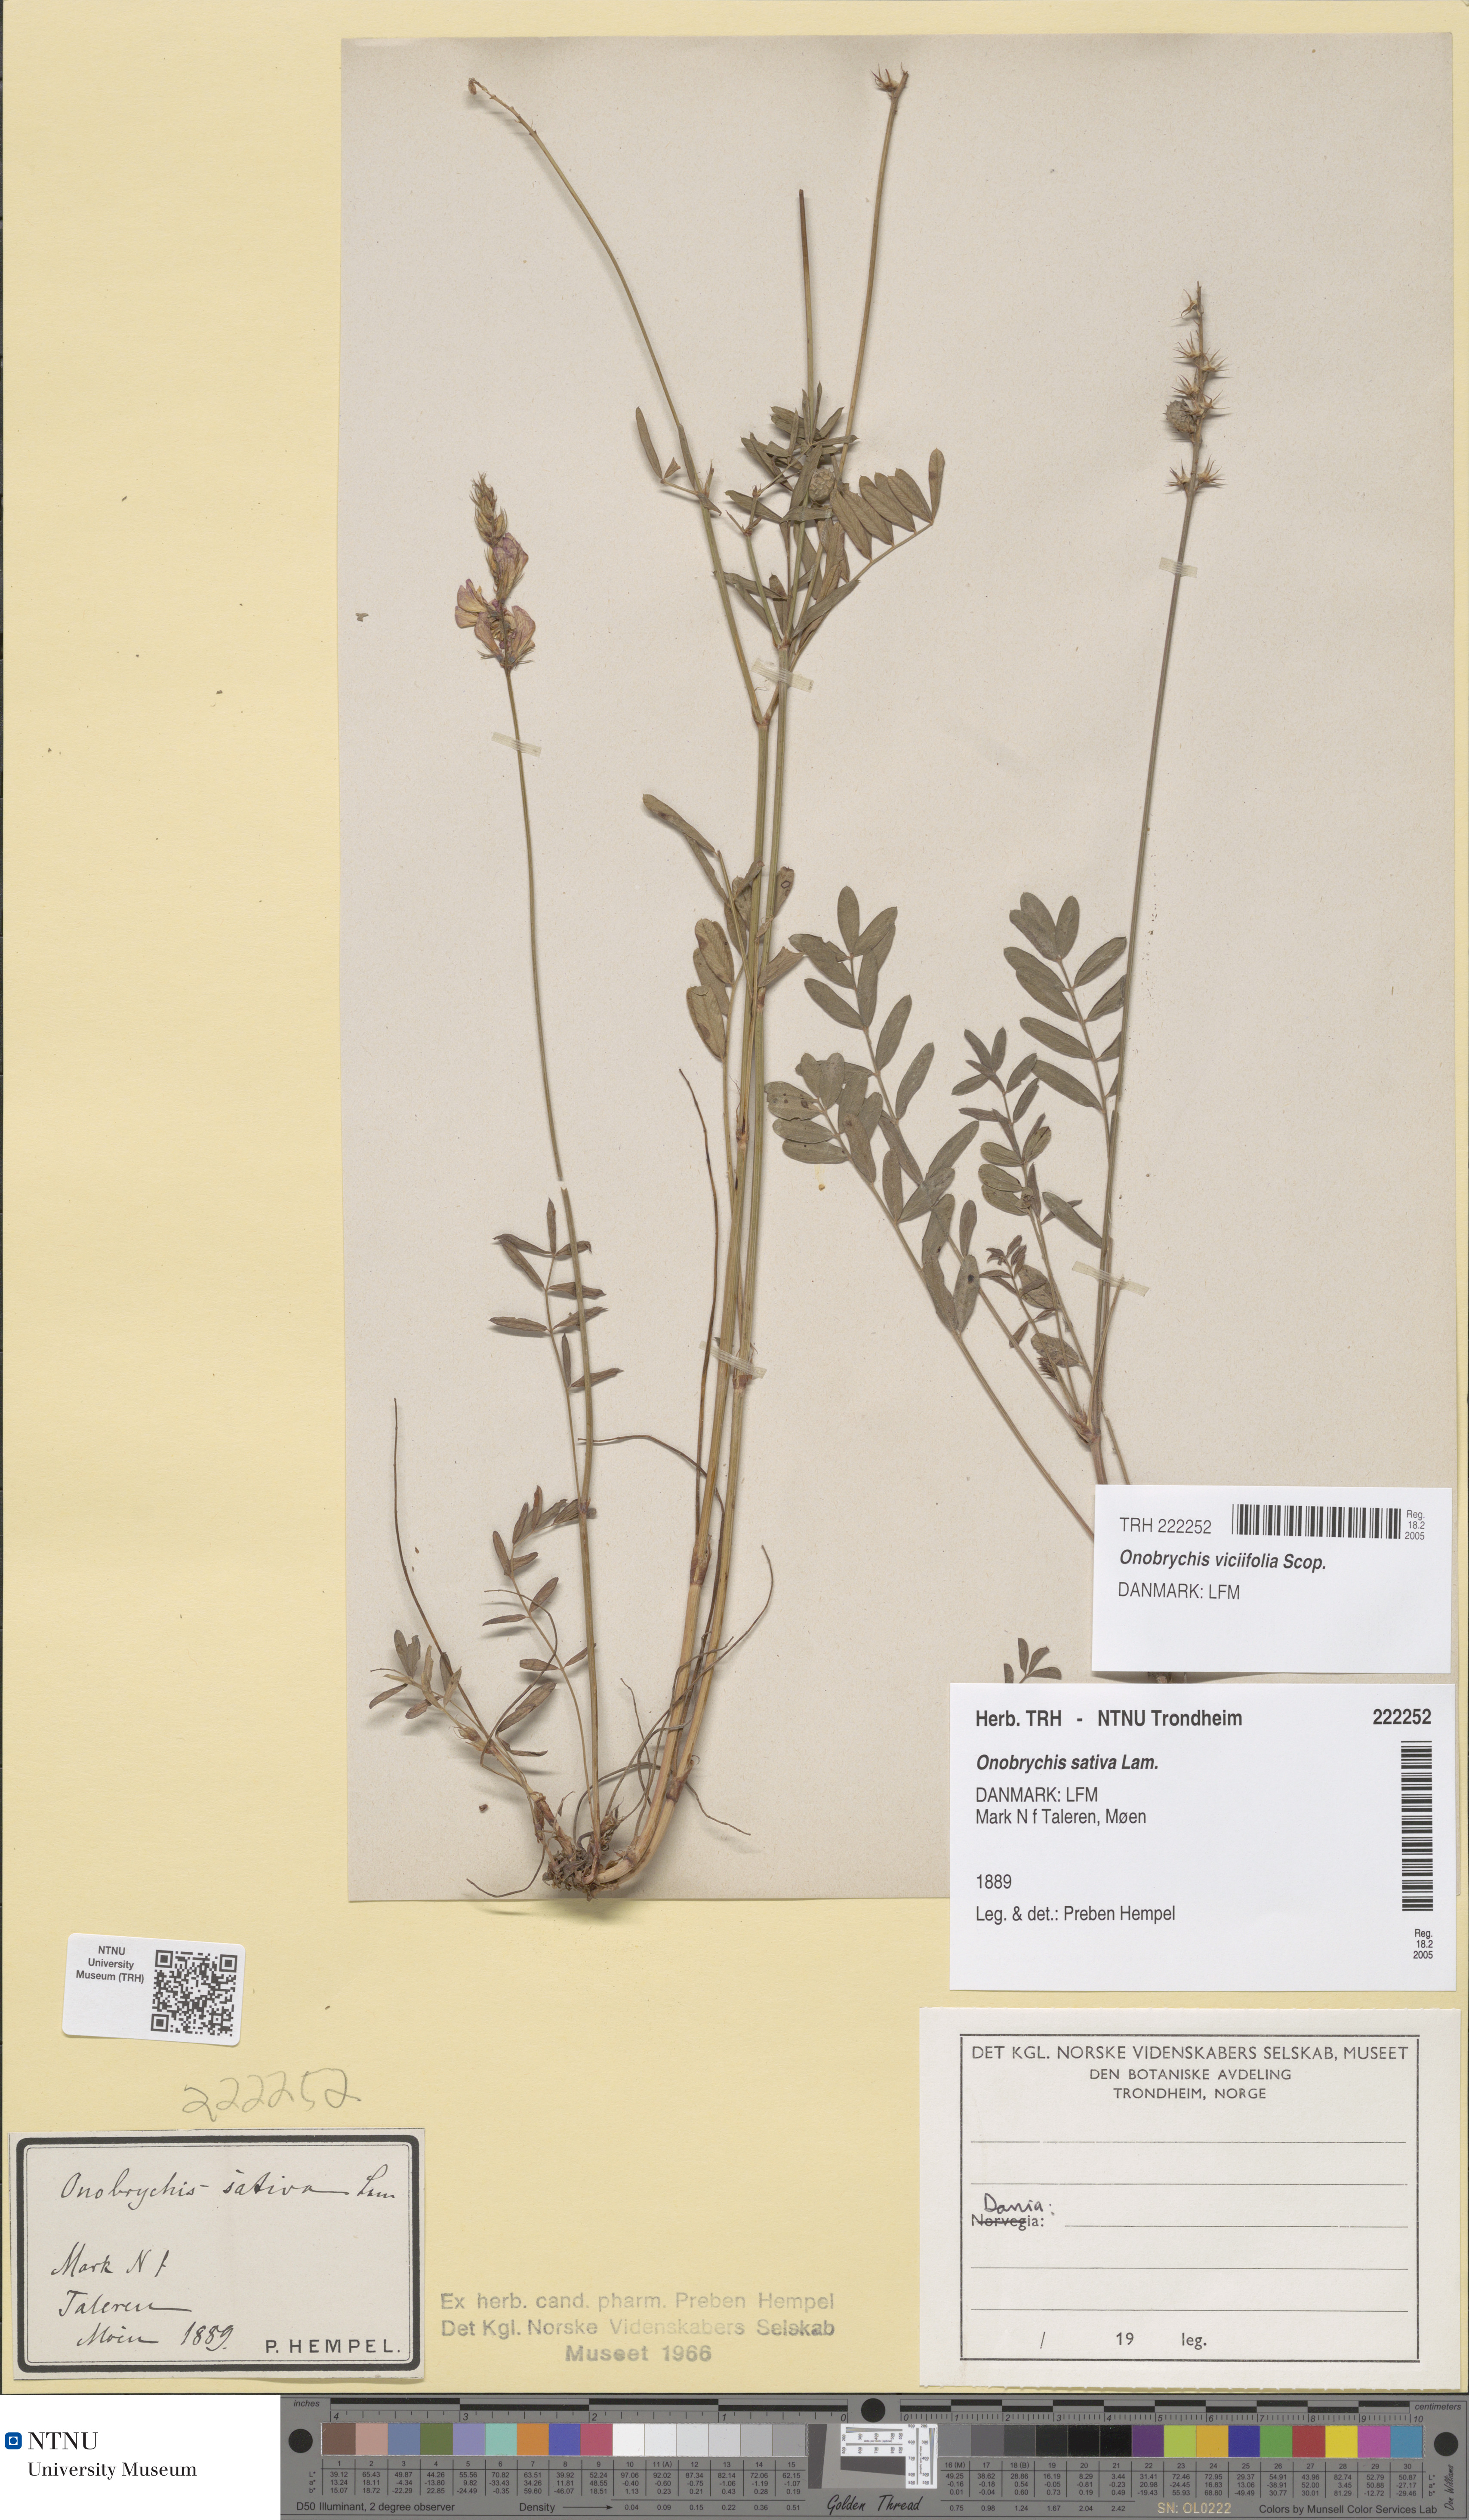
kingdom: Plantae
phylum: Tracheophyta
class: Magnoliopsida
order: Fabales
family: Fabaceae
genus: Onobrychis
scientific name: Onobrychis viciifolia
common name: Sainfoin
